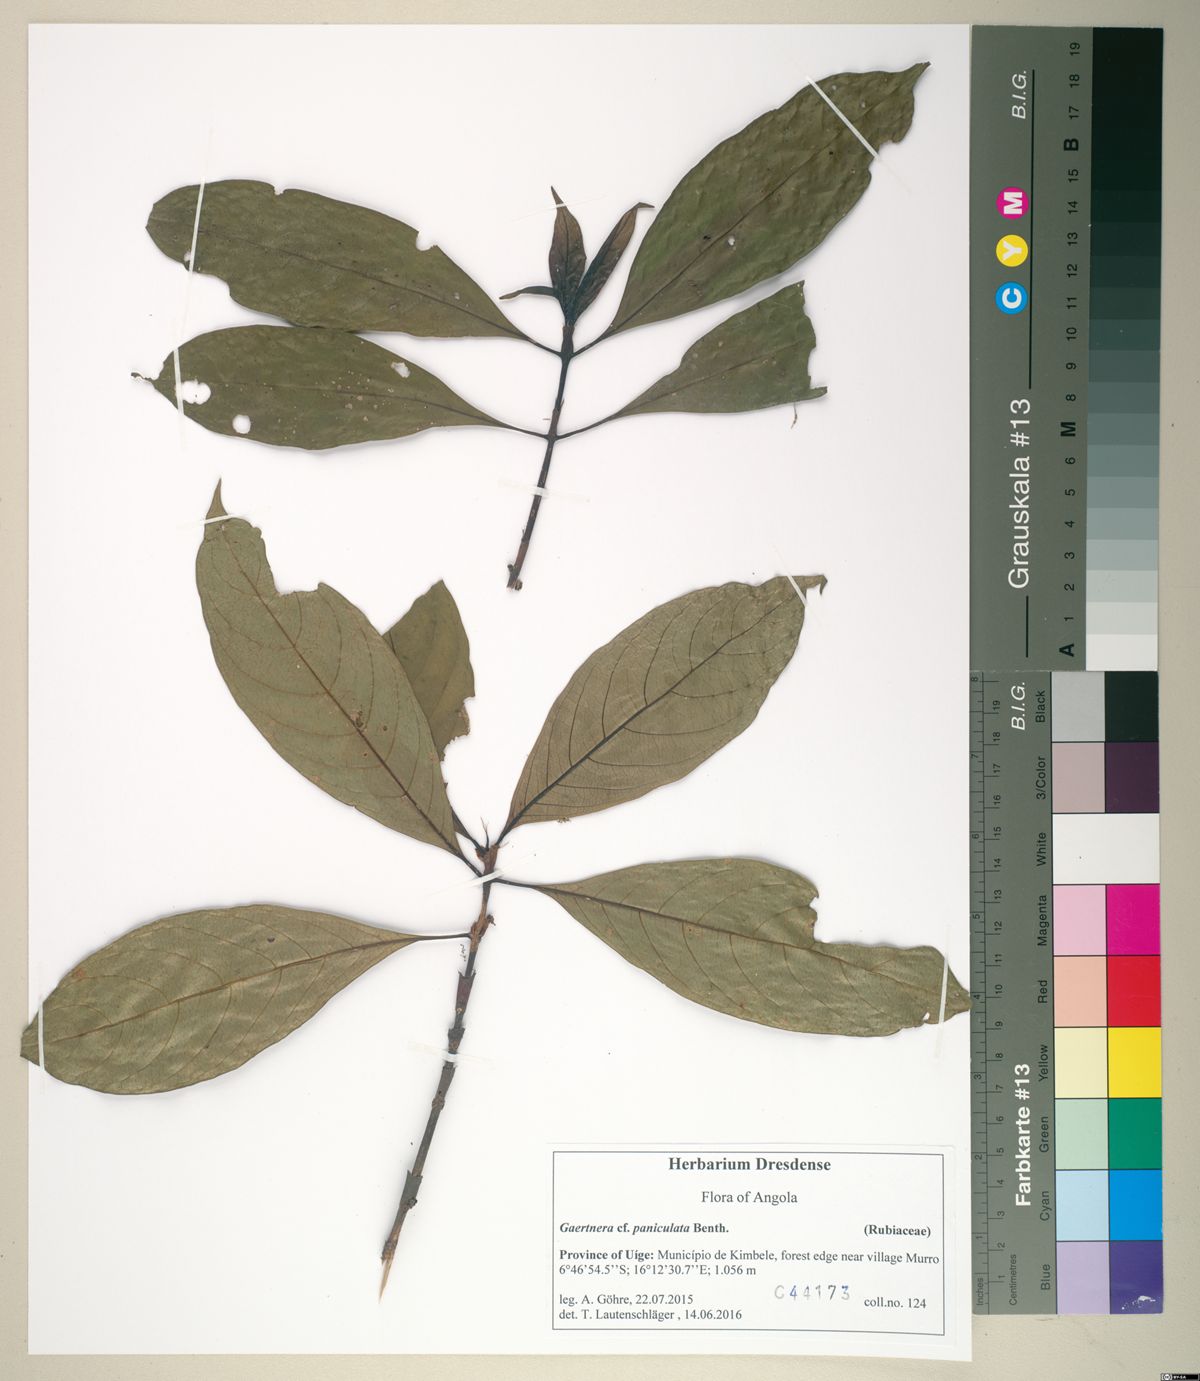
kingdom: Plantae
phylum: Tracheophyta
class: Magnoliopsida
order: Gentianales
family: Rubiaceae
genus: Gaertnera
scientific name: Gaertnera paniculata
